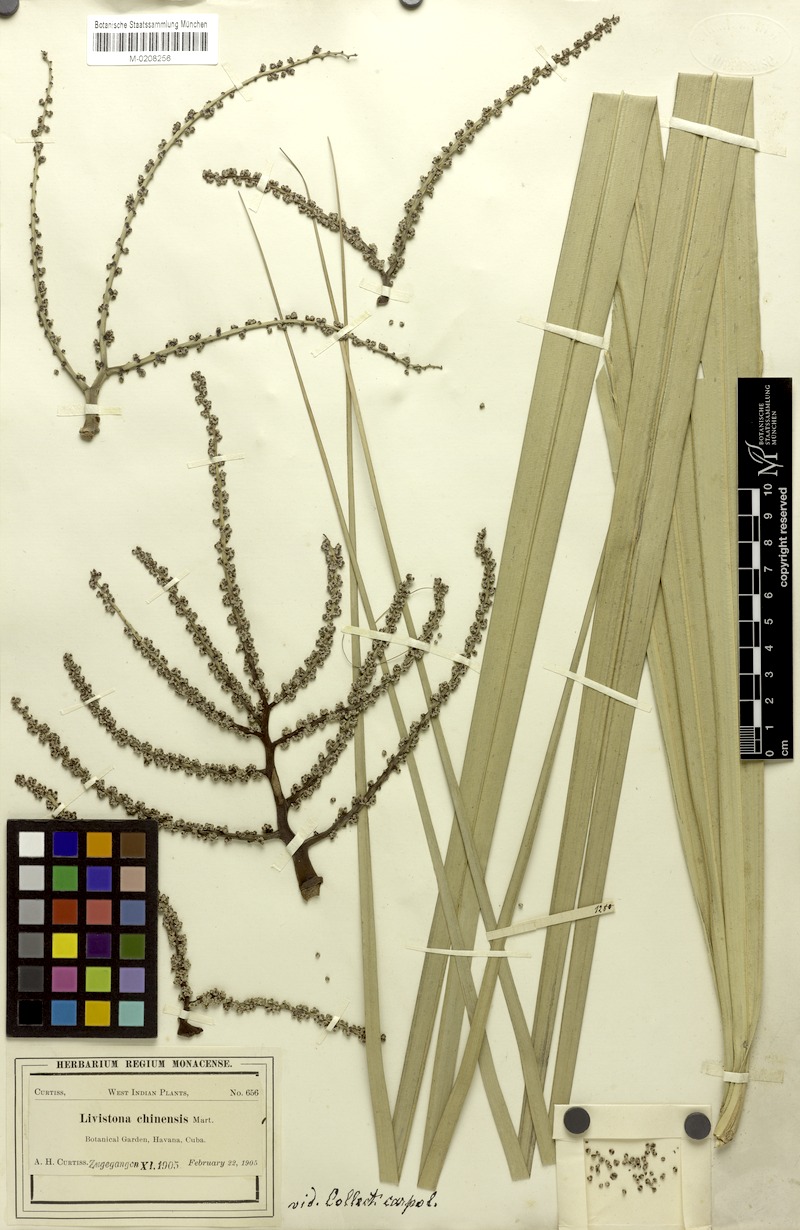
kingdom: Plantae
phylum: Tracheophyta
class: Liliopsida
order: Arecales
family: Arecaceae
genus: Livistona
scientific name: Livistona chinensis
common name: Fountain palm
